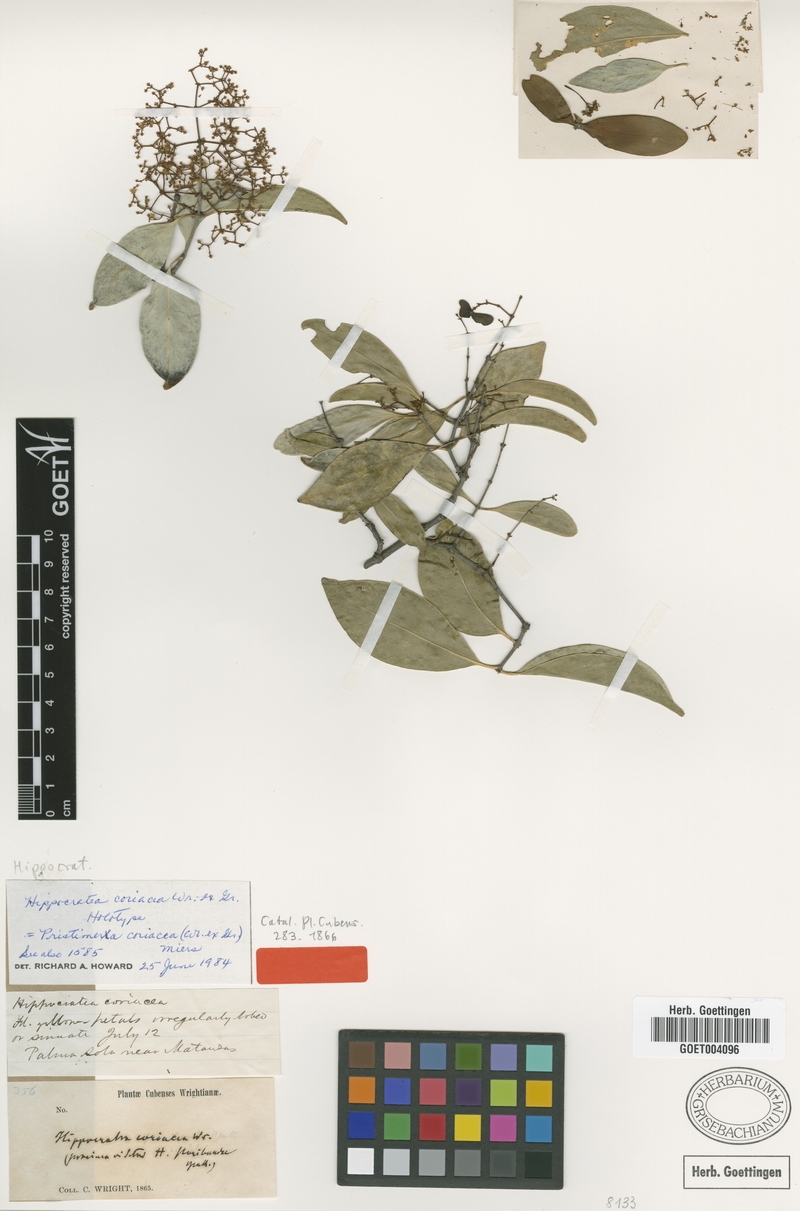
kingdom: Plantae
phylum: Tracheophyta
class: Magnoliopsida
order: Celastrales
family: Celastraceae
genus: Pristimera
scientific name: Pristimera celastroides
